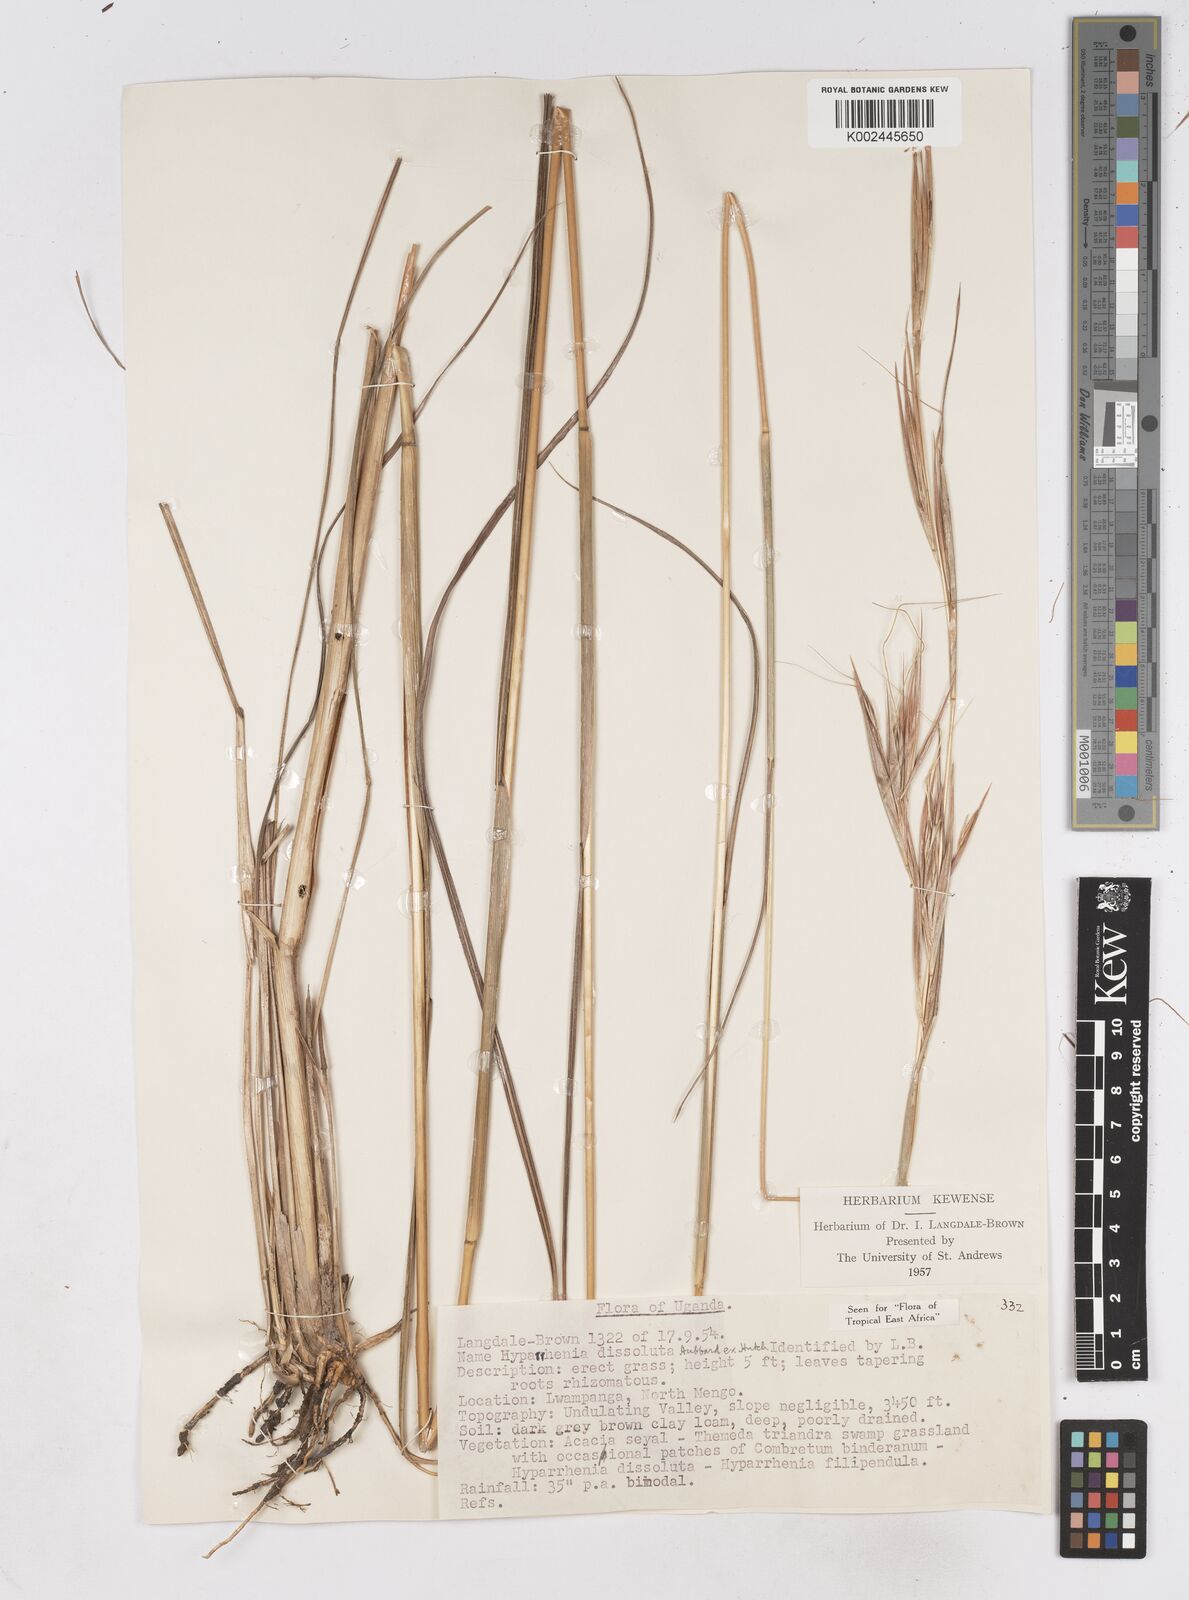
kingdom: Plantae
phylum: Tracheophyta
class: Liliopsida
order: Poales
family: Poaceae
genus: Hyperthelia
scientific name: Hyperthelia dissoluta
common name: Yellow thatching grass
